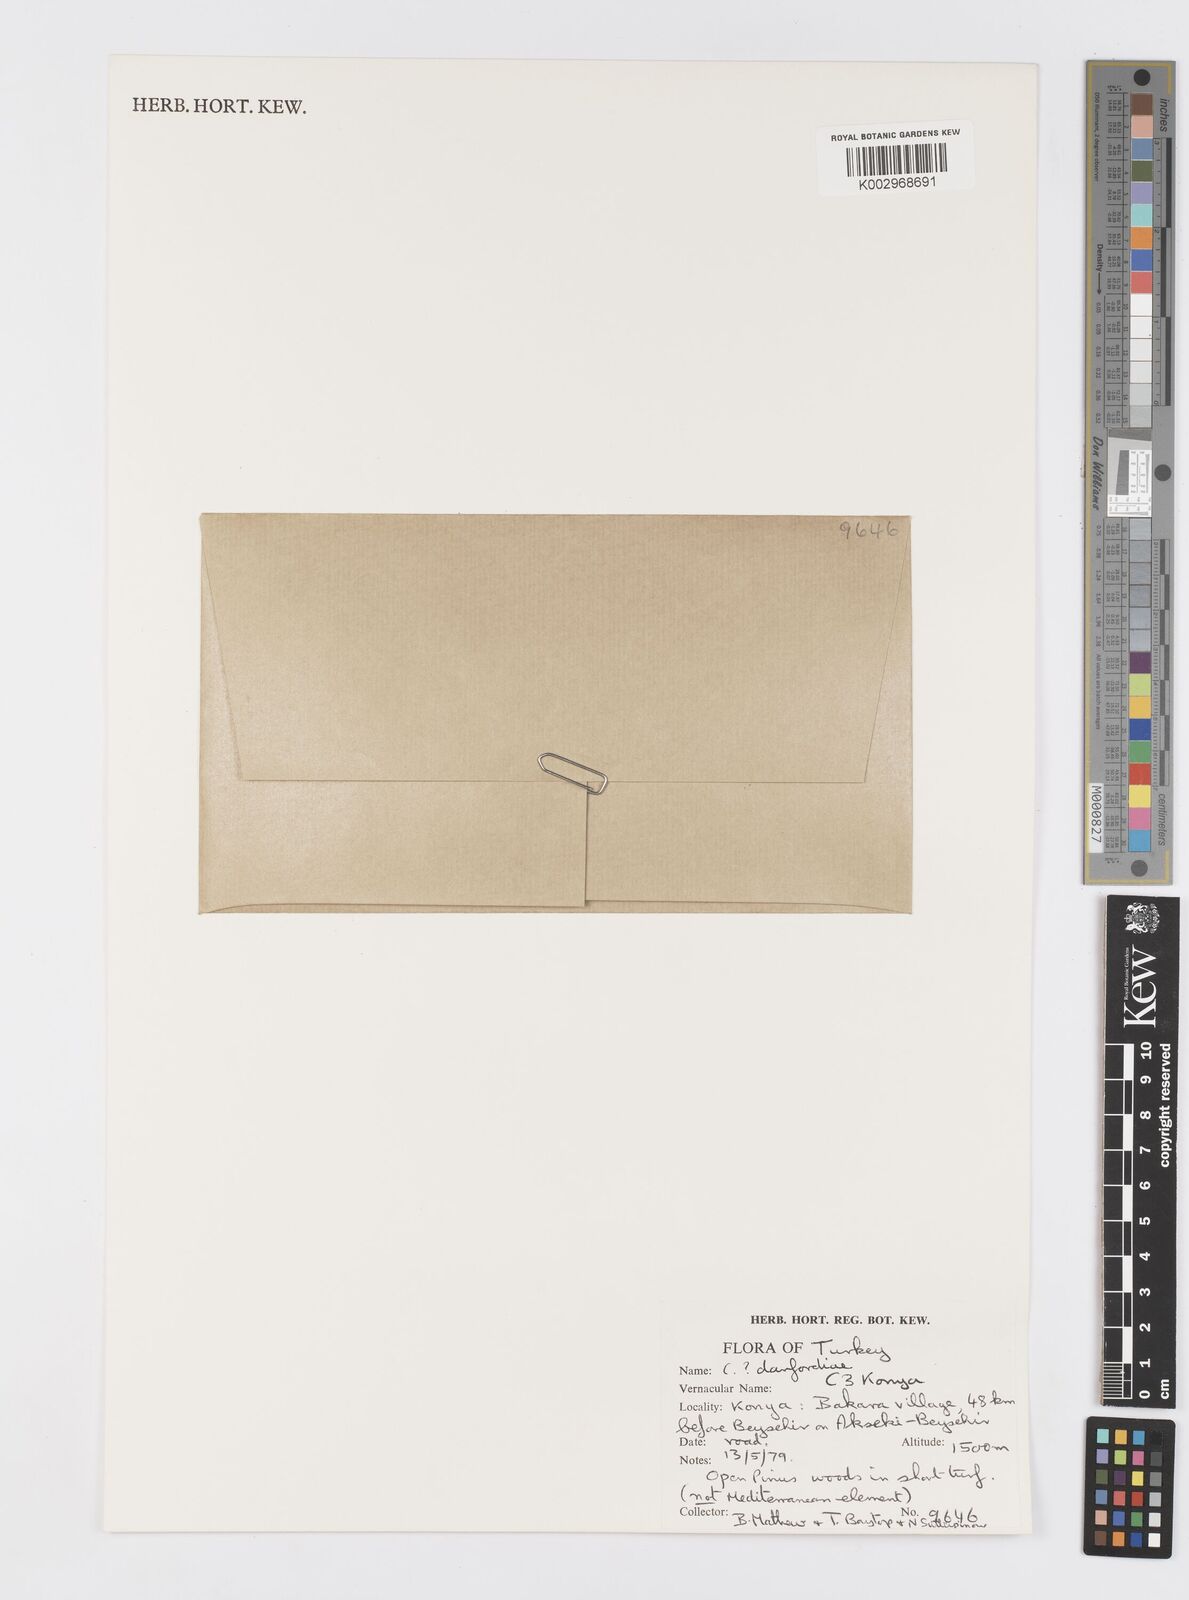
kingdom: Plantae
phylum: Tracheophyta
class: Liliopsida
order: Asparagales
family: Iridaceae
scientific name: Iridaceae
